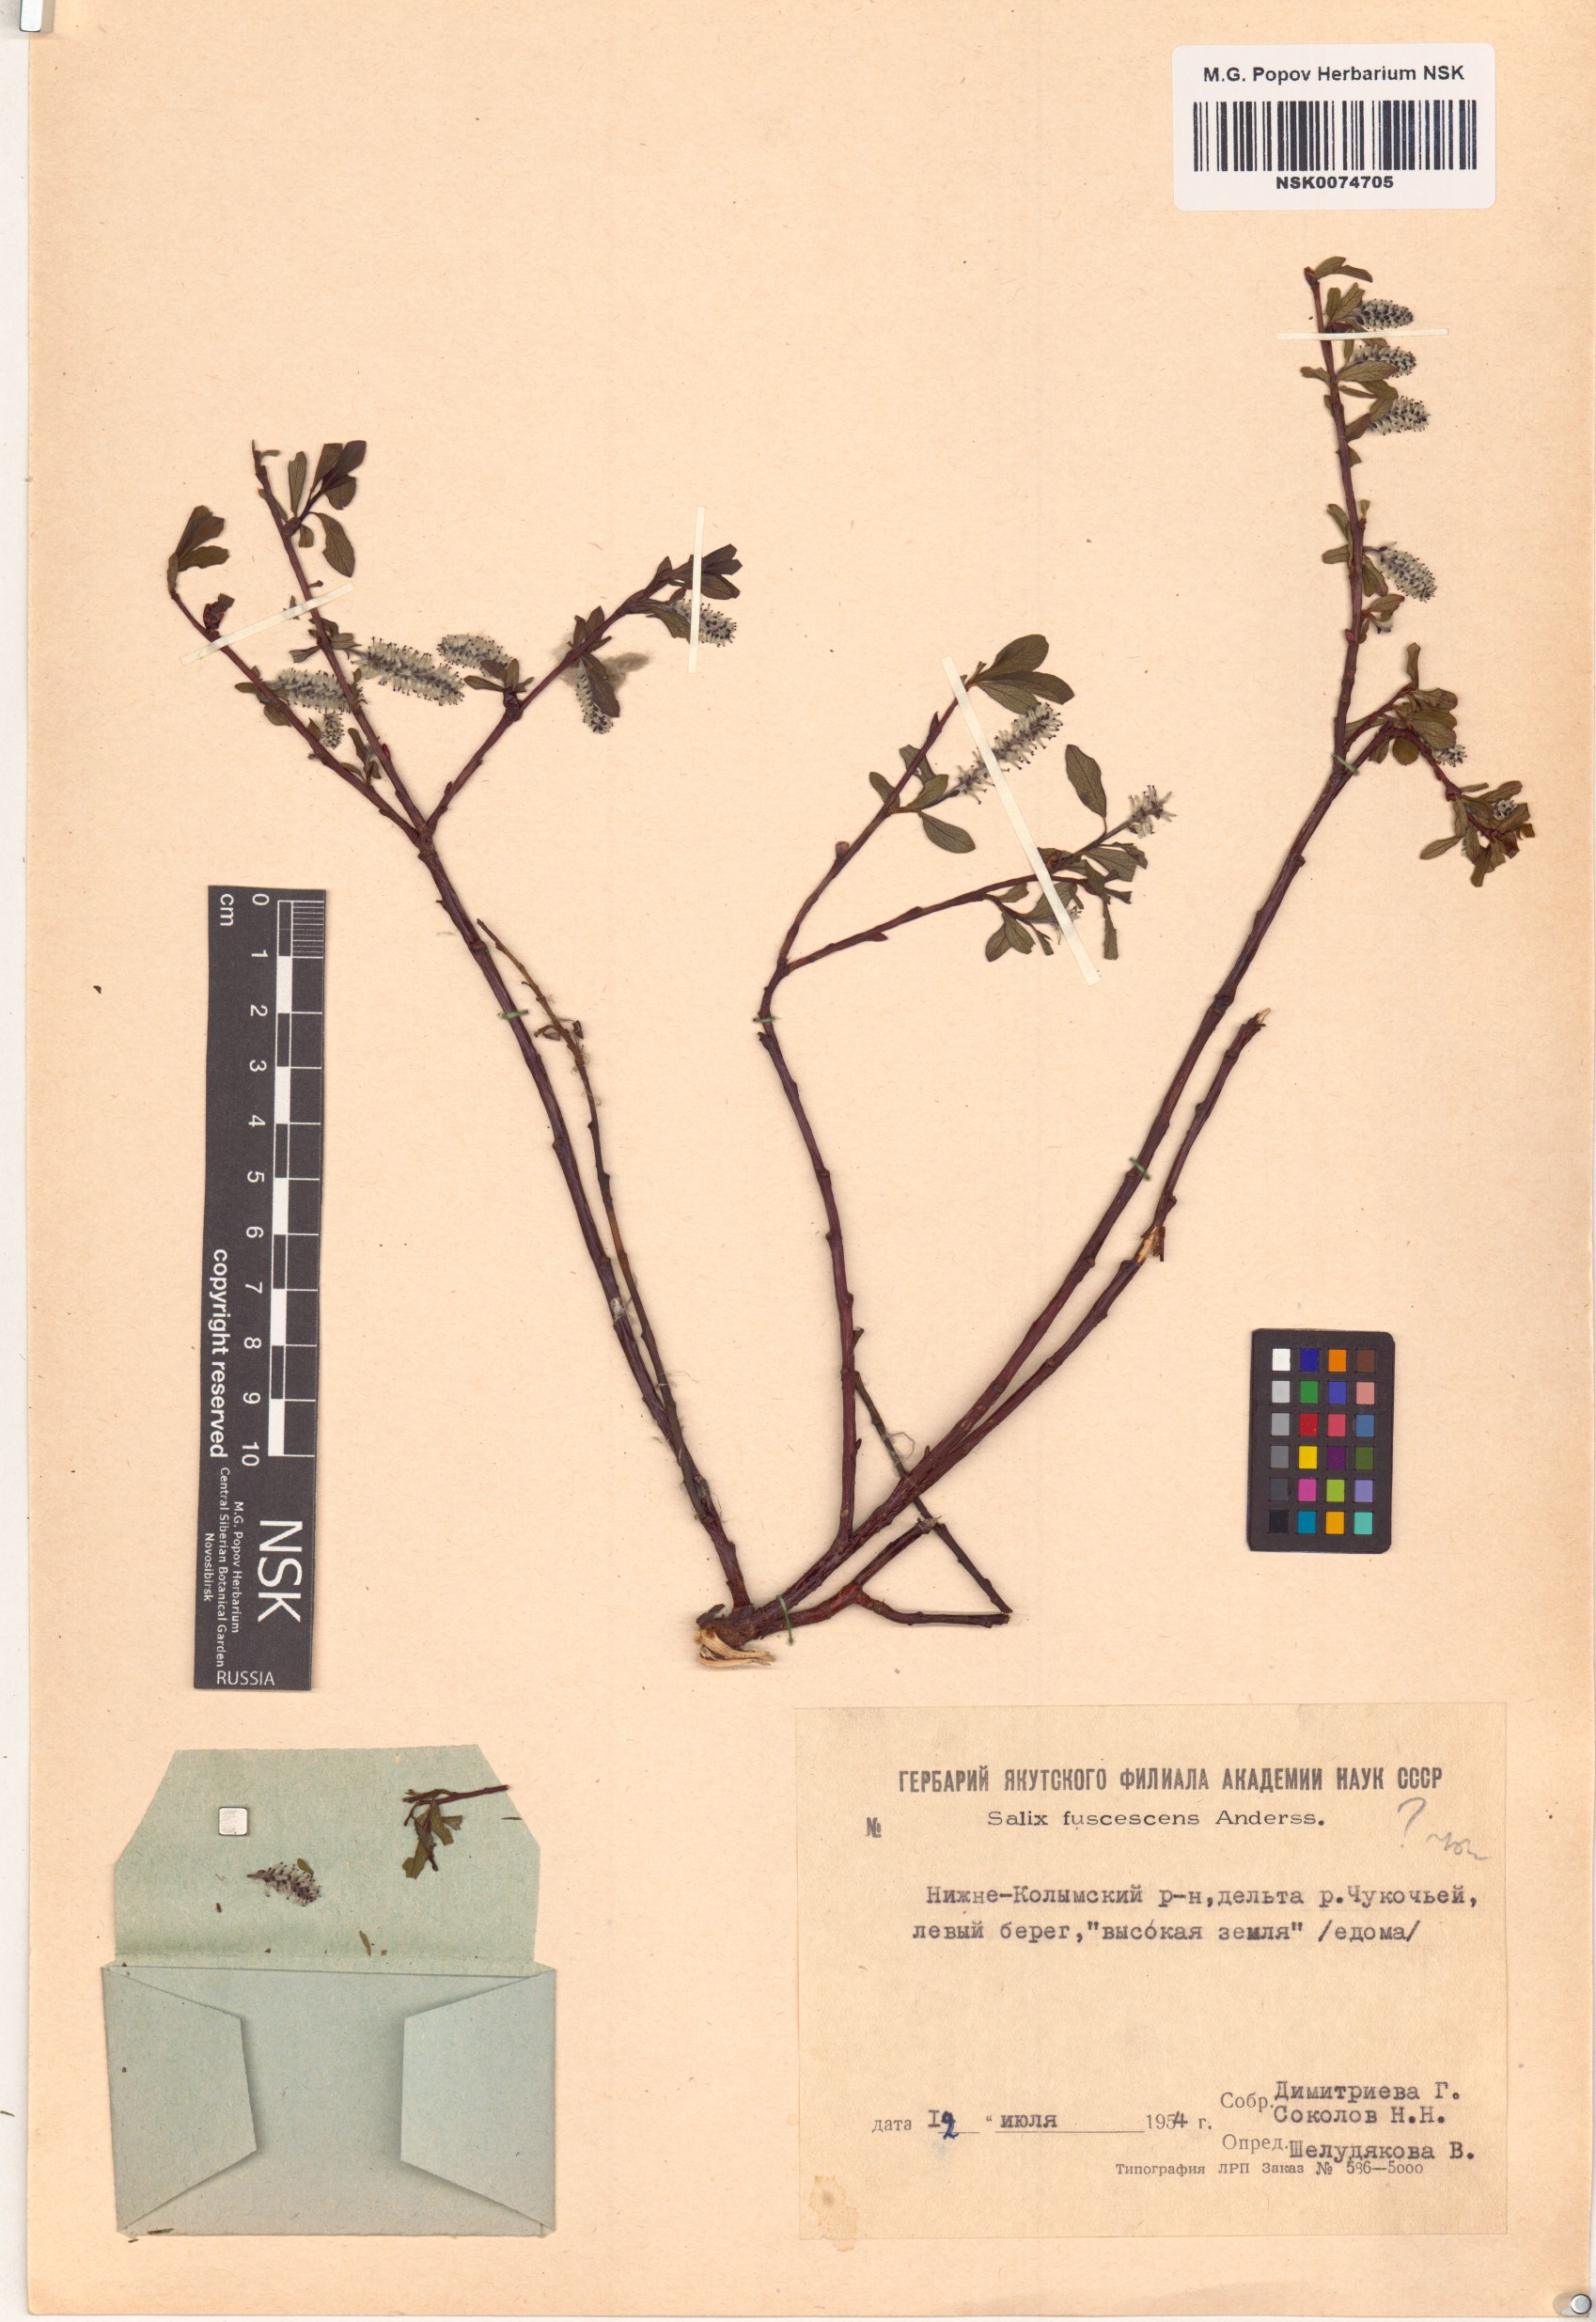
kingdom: Plantae
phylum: Tracheophyta
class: Magnoliopsida
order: Malpighiales
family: Salicaceae
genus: Salix
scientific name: Salix fuscescens
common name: Brownish willow
